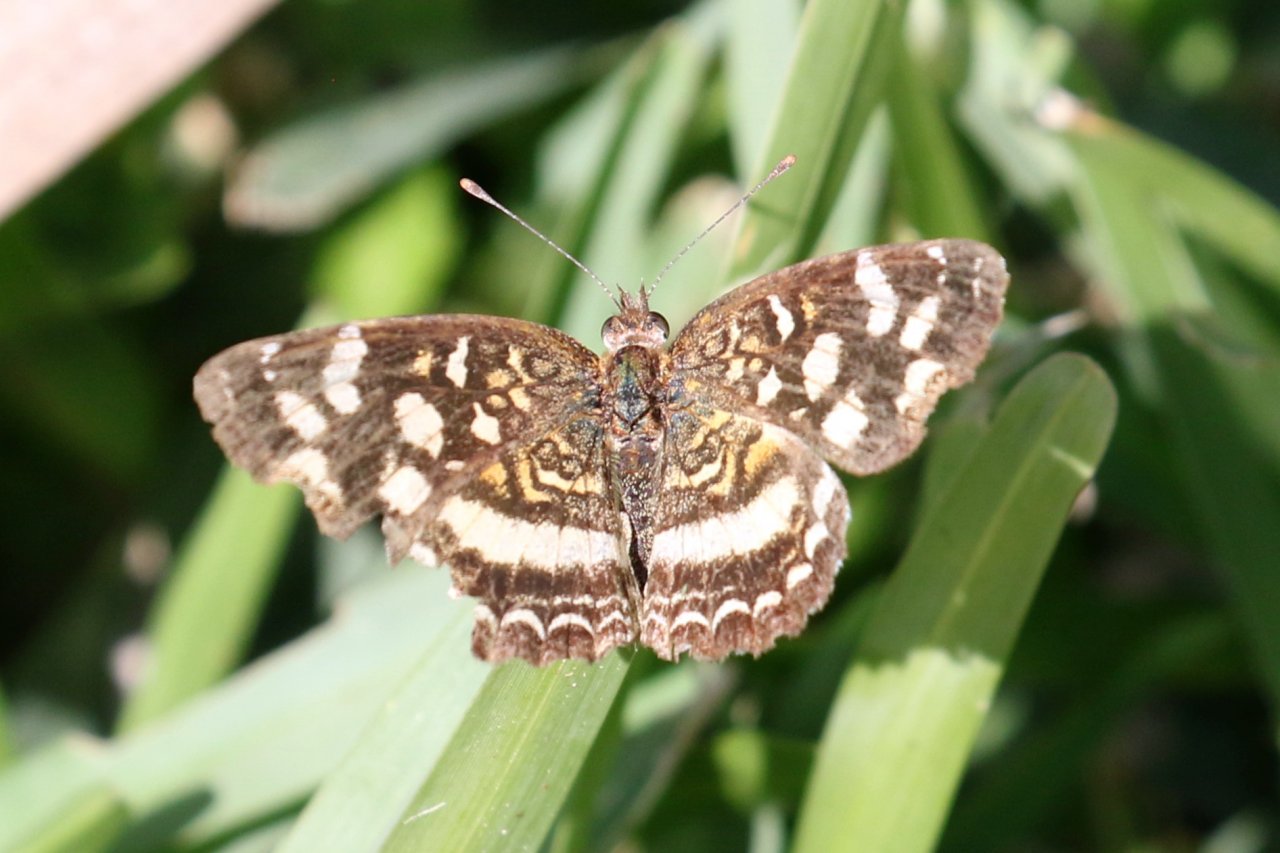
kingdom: Animalia
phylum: Arthropoda
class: Insecta
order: Lepidoptera
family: Nymphalidae
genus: Anthanassa
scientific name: Anthanassa tulcis
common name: Pale-banded Crescent
